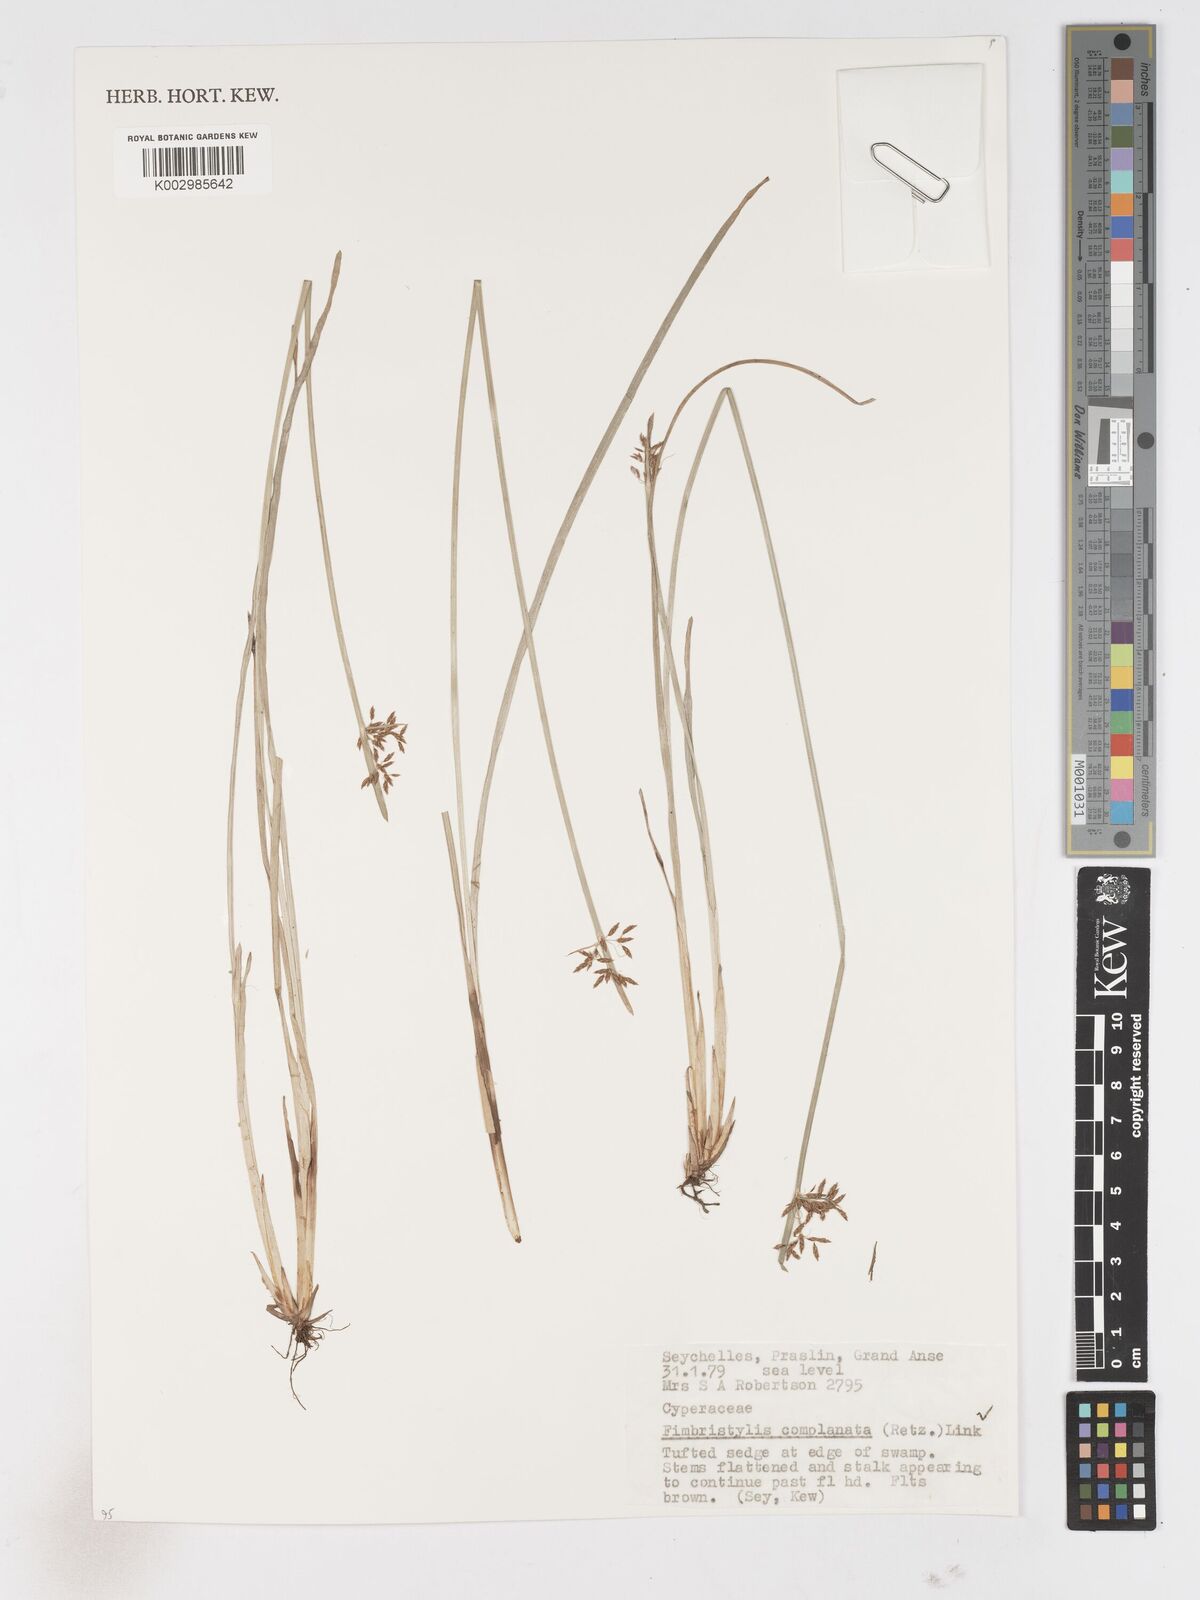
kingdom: Plantae
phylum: Tracheophyta
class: Liliopsida
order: Poales
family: Cyperaceae
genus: Fimbristylis
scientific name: Fimbristylis complanata
